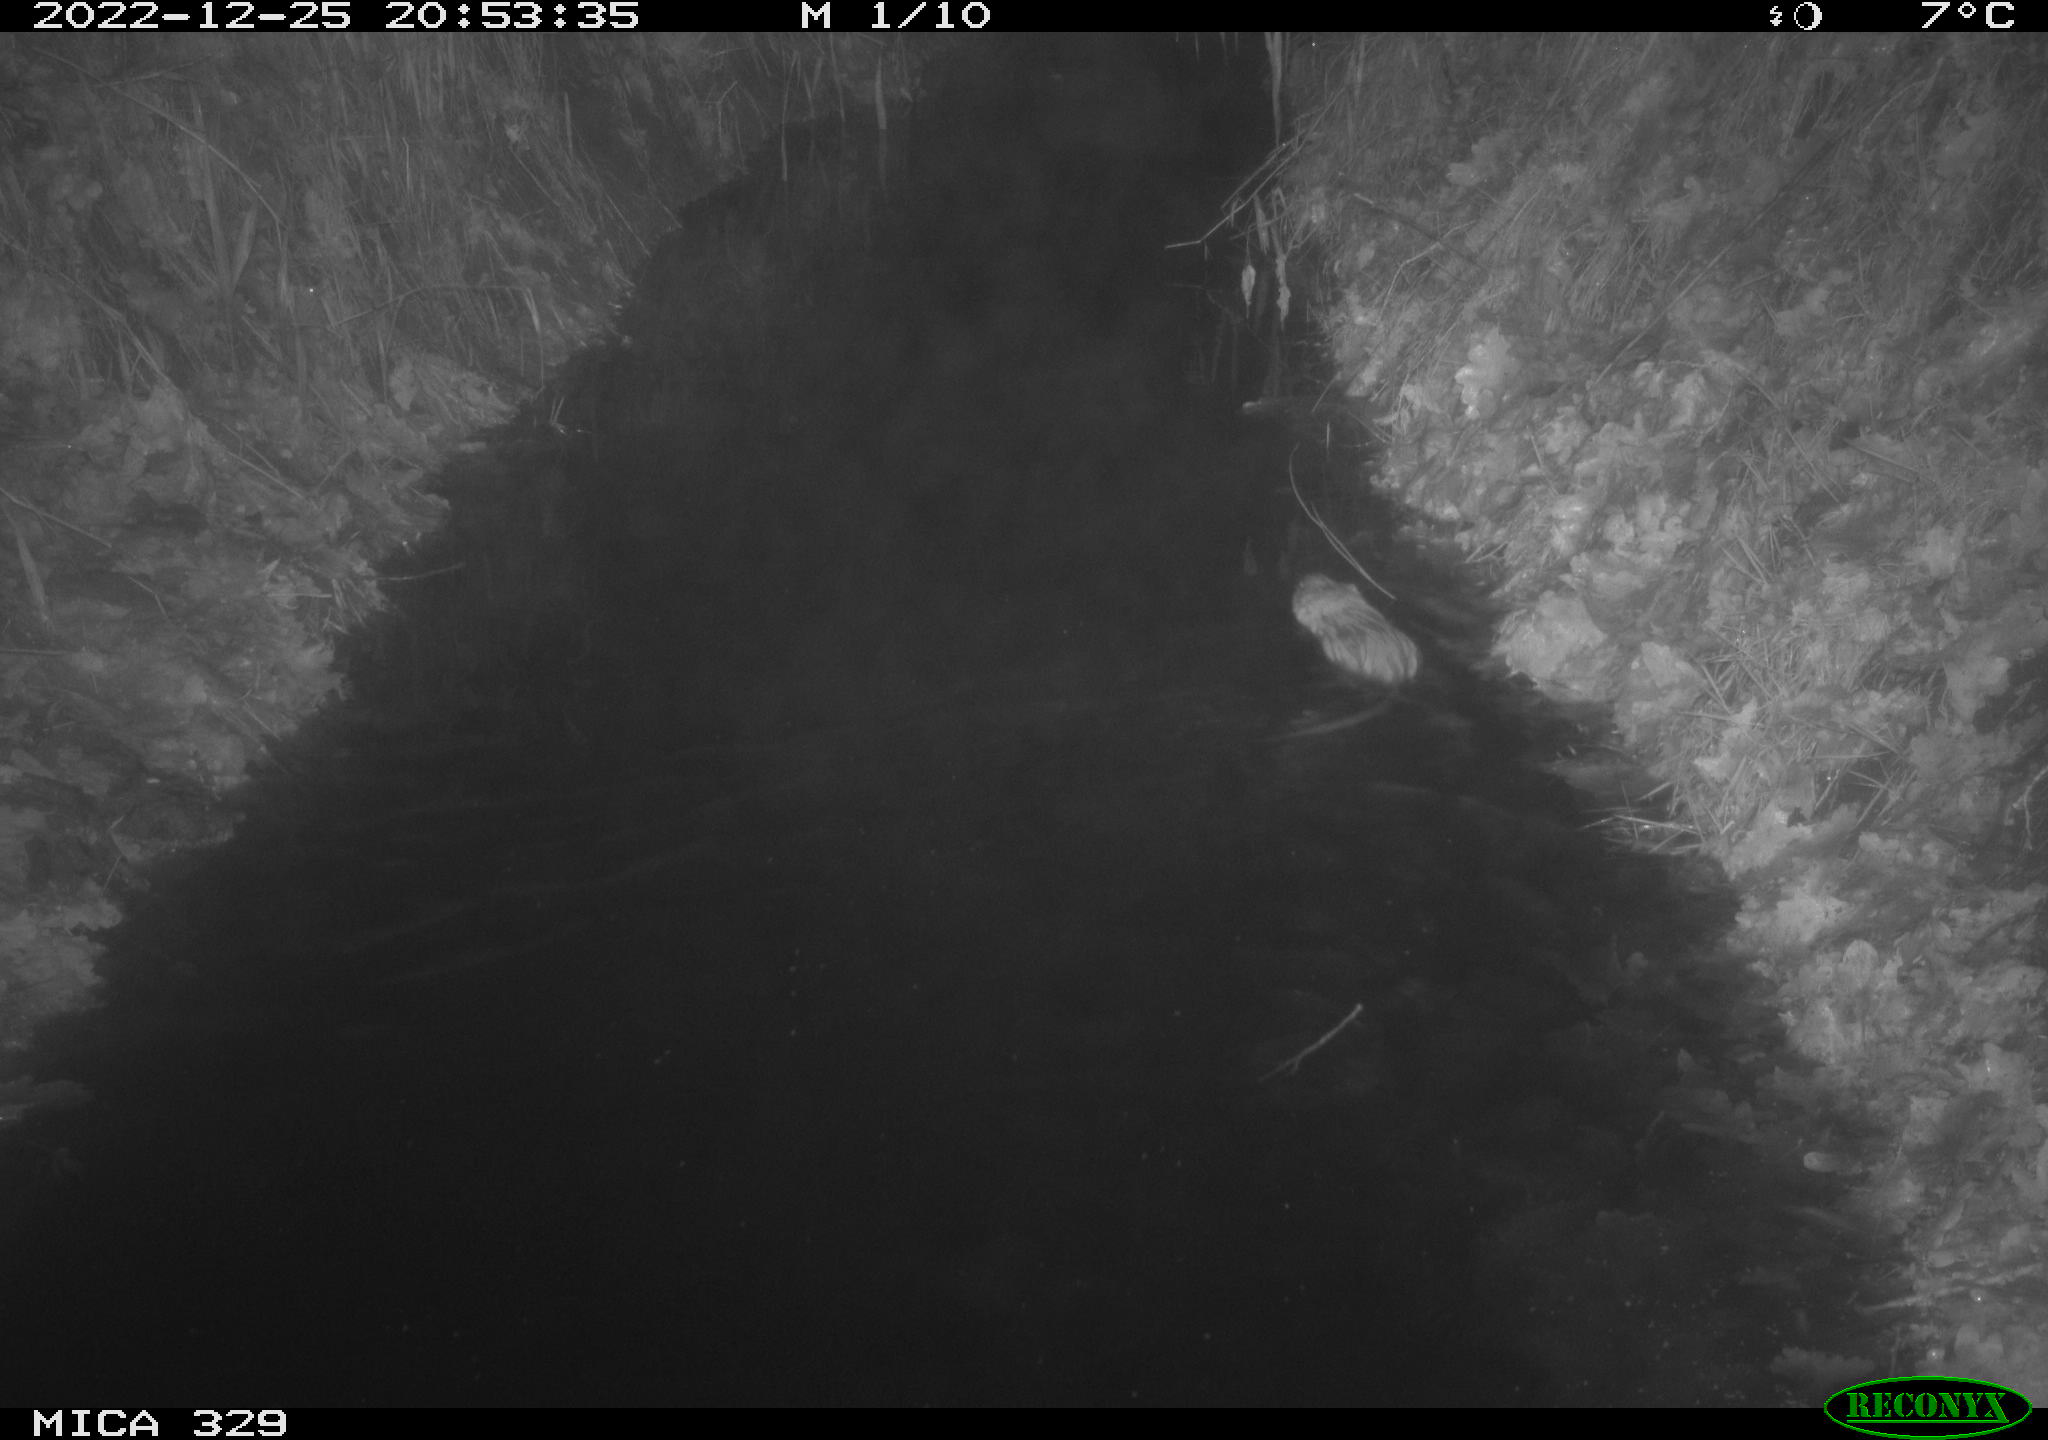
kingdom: Animalia
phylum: Chordata
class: Mammalia
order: Rodentia
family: Cricetidae
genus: Ondatra
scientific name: Ondatra zibethicus
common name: Muskrat
